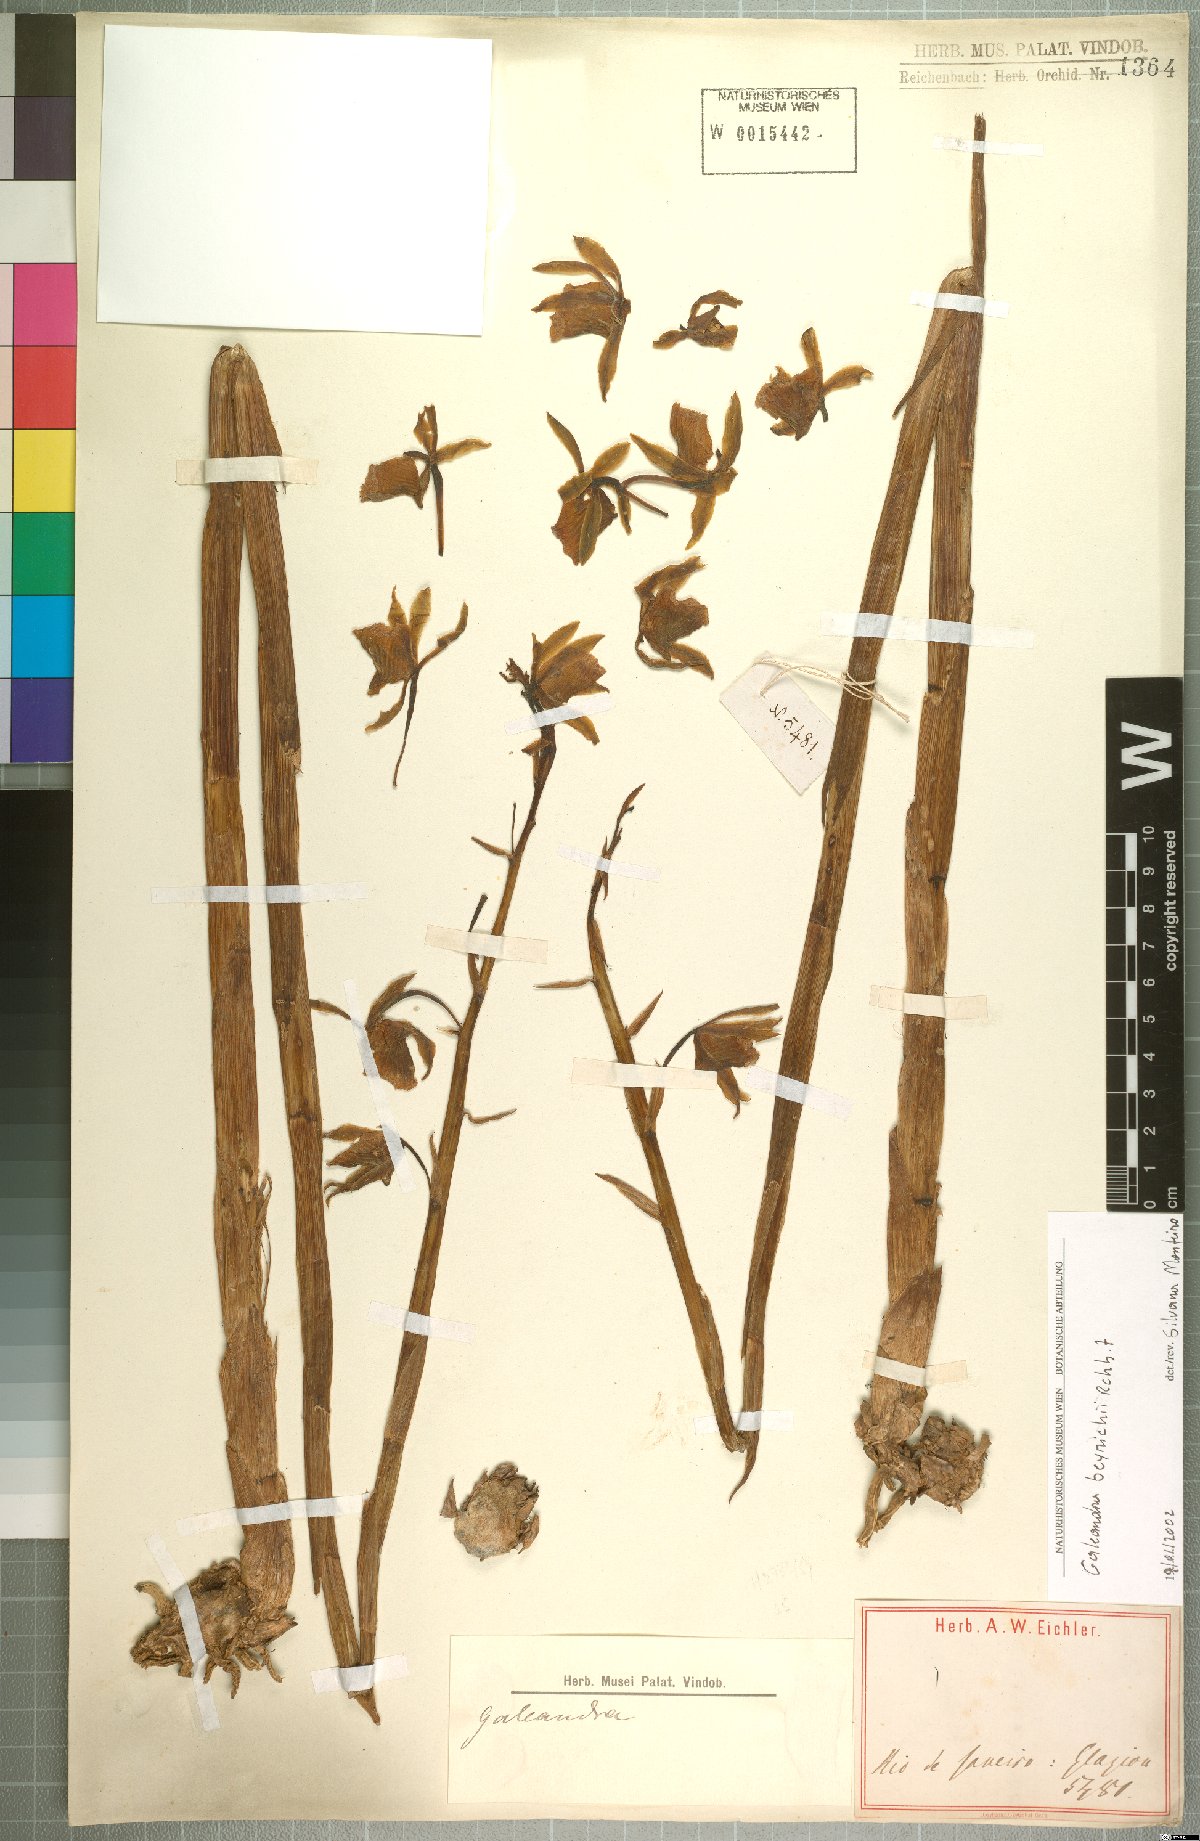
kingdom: Plantae
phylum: Tracheophyta
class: Liliopsida
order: Asparagales
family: Orchidaceae
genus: Galeandra
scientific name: Galeandra beyrichii
